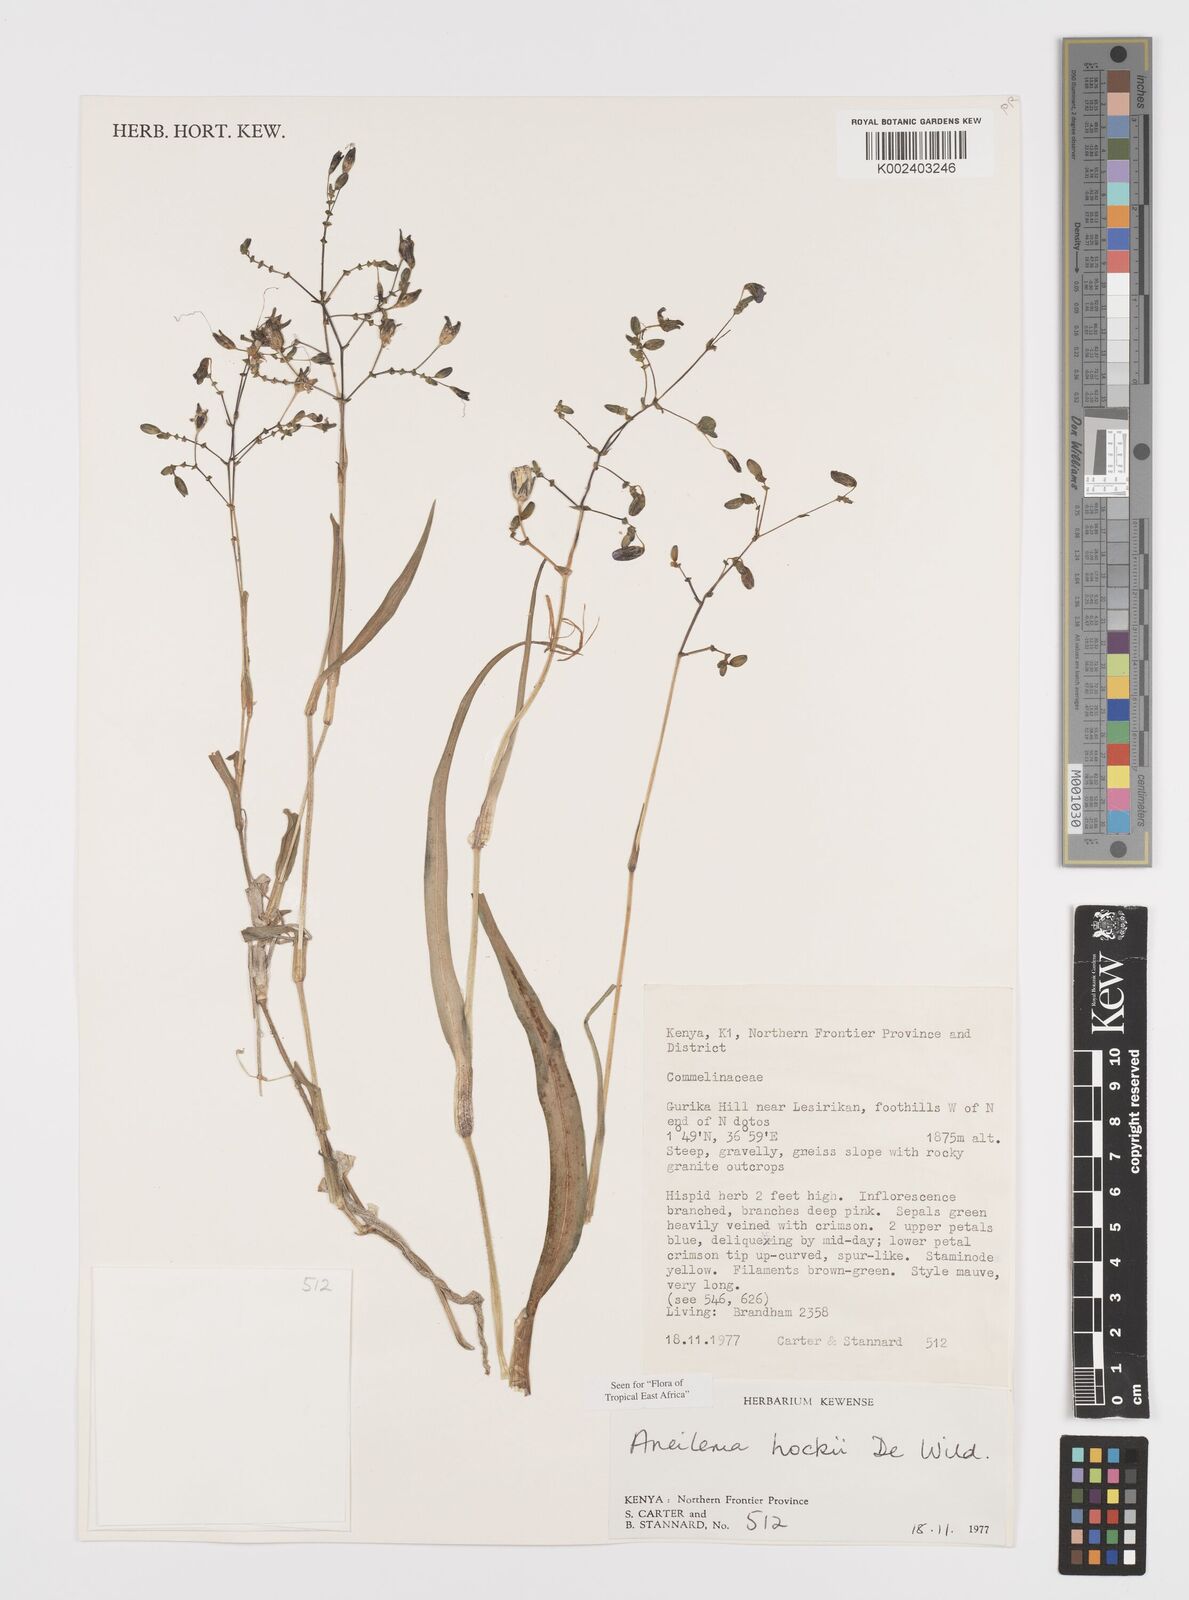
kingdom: Plantae
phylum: Tracheophyta
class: Liliopsida
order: Commelinales
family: Commelinaceae
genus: Aneilema
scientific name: Aneilema hockii
